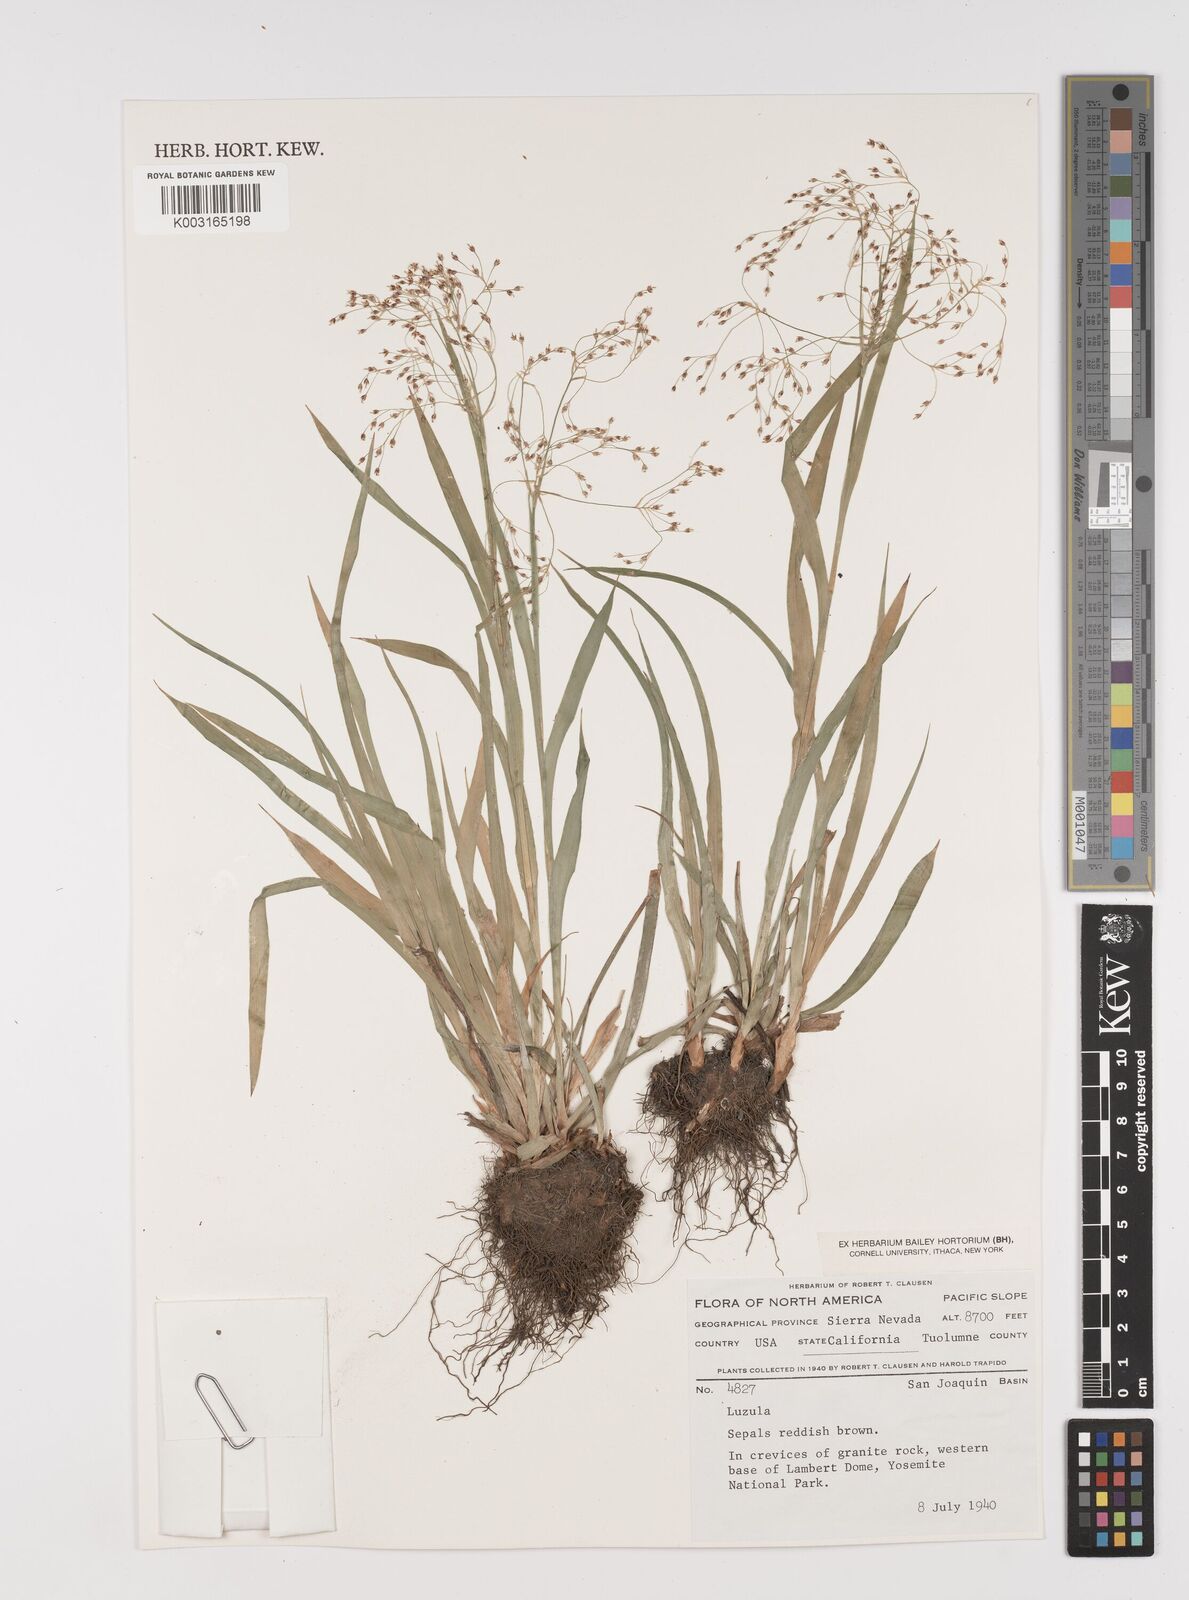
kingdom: Plantae
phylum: Tracheophyta
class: Liliopsida
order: Poales
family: Juncaceae
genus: Luzula
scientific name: Luzula
